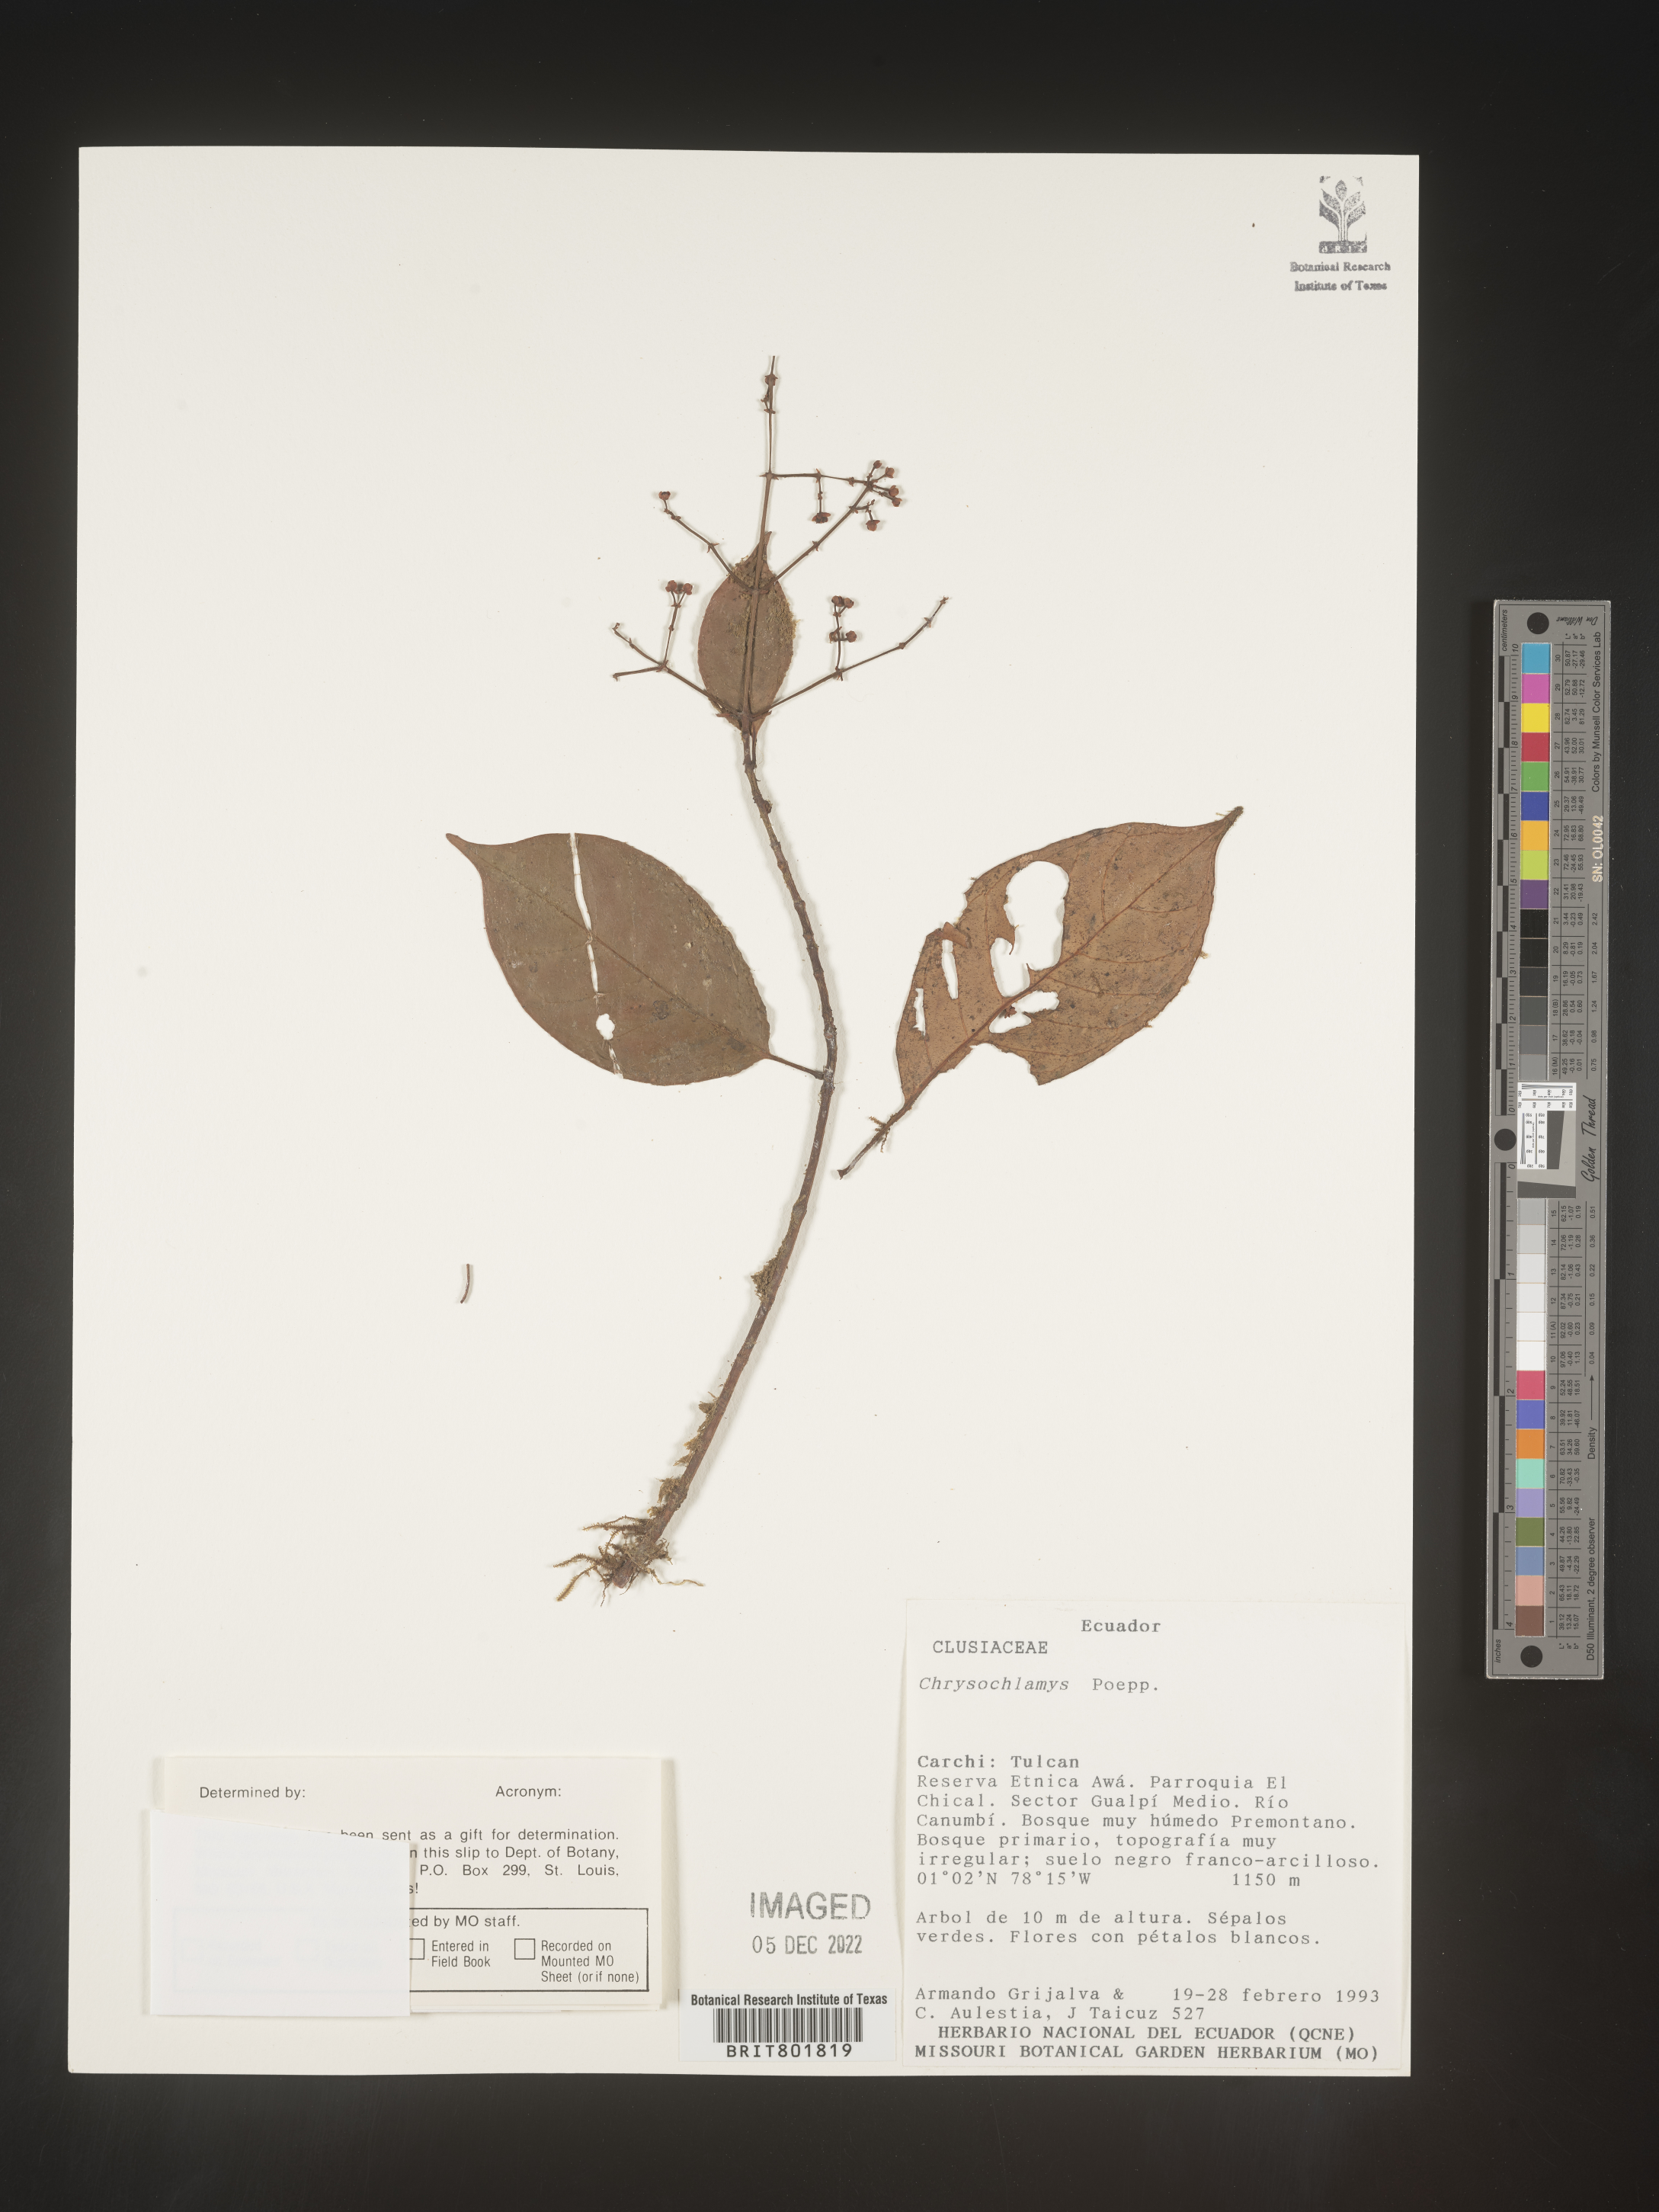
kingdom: Plantae
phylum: Tracheophyta
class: Magnoliopsida
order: Malpighiales
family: Clusiaceae
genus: Chrysochlamys
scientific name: Chrysochlamys
